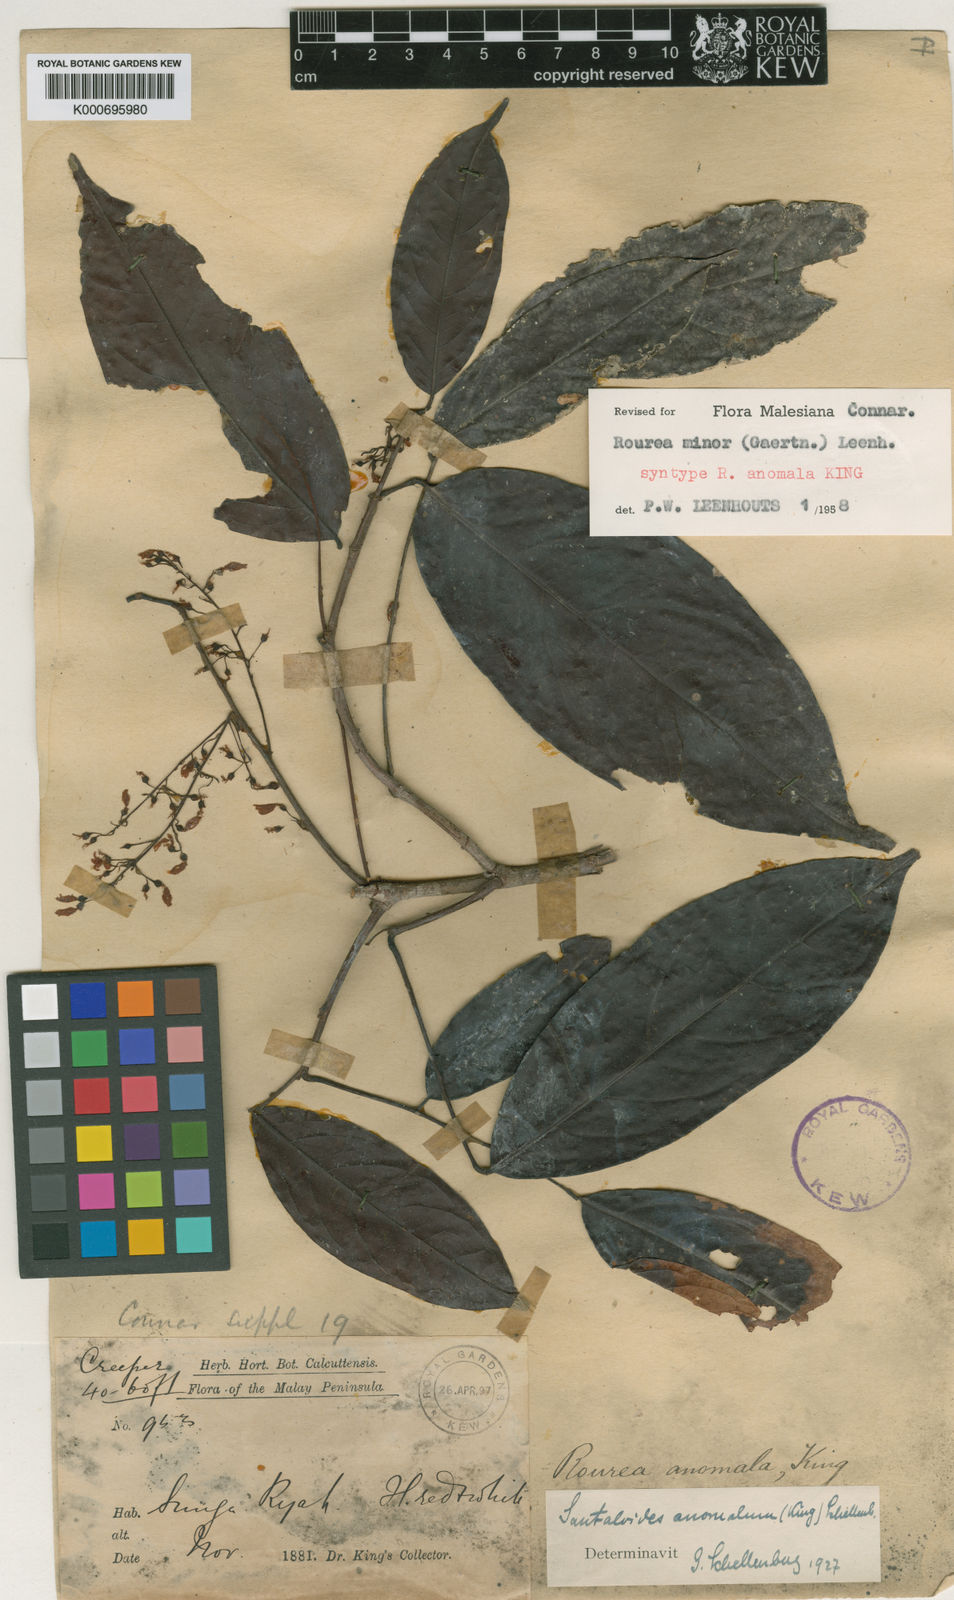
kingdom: Plantae
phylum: Tracheophyta
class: Magnoliopsida
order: Oxalidales
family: Connaraceae
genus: Rourea
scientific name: Rourea
